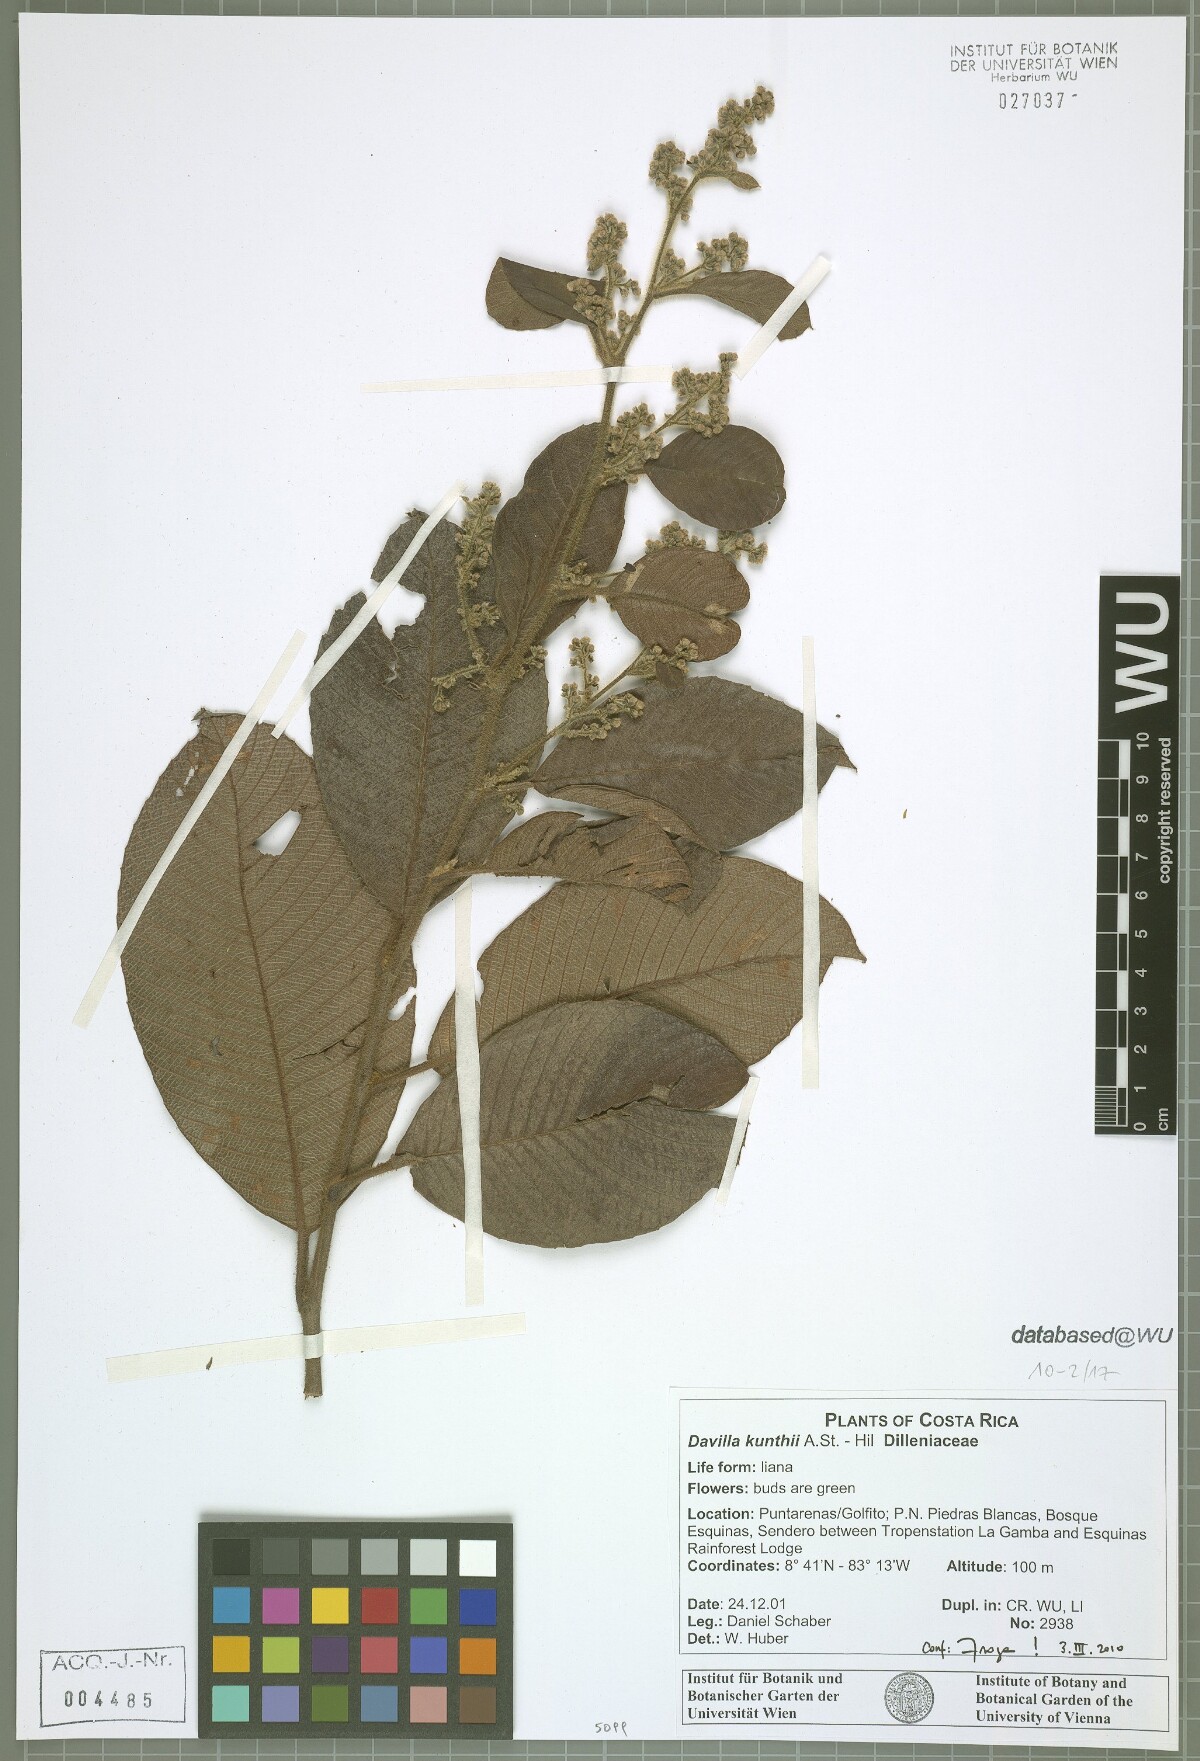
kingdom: Plantae
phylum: Tracheophyta
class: Magnoliopsida
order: Dilleniales
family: Dilleniaceae
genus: Davilla
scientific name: Davilla kunthii
